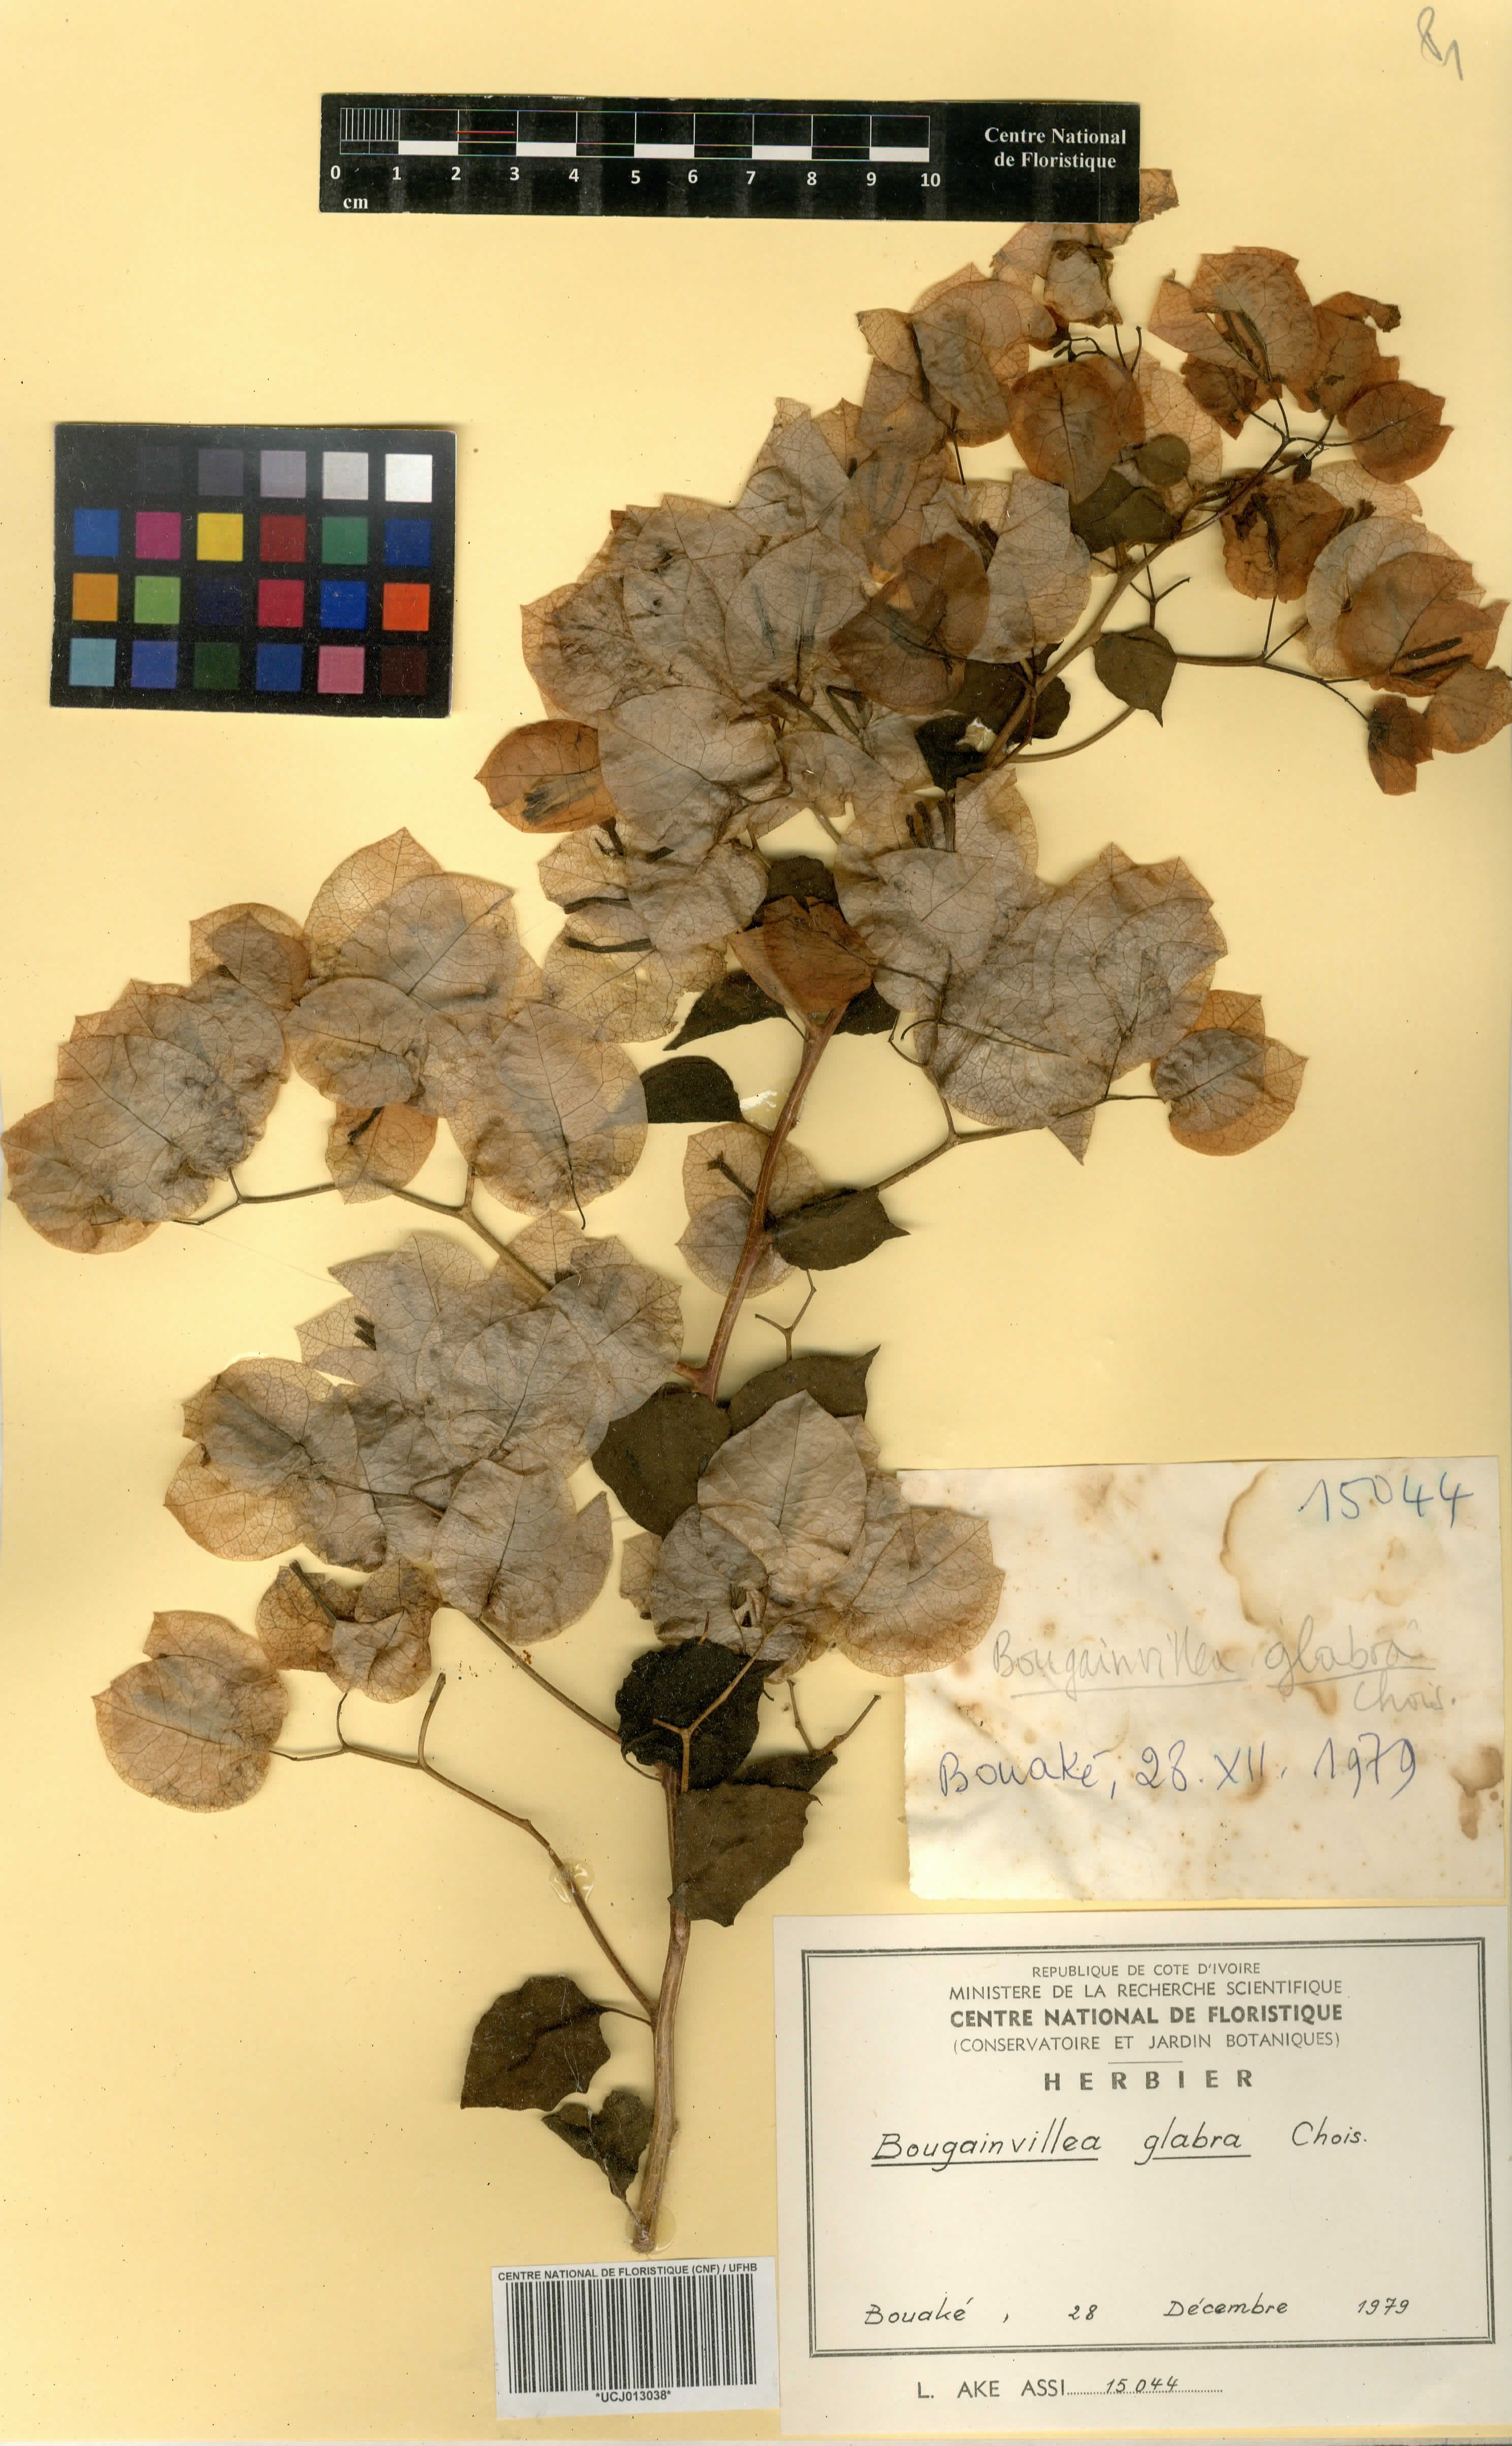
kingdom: Plantae
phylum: Tracheophyta
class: Magnoliopsida
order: Caryophyllales
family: Nyctaginaceae
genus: Bougainvillea
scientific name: Bougainvillea glabra
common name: Paperflower
